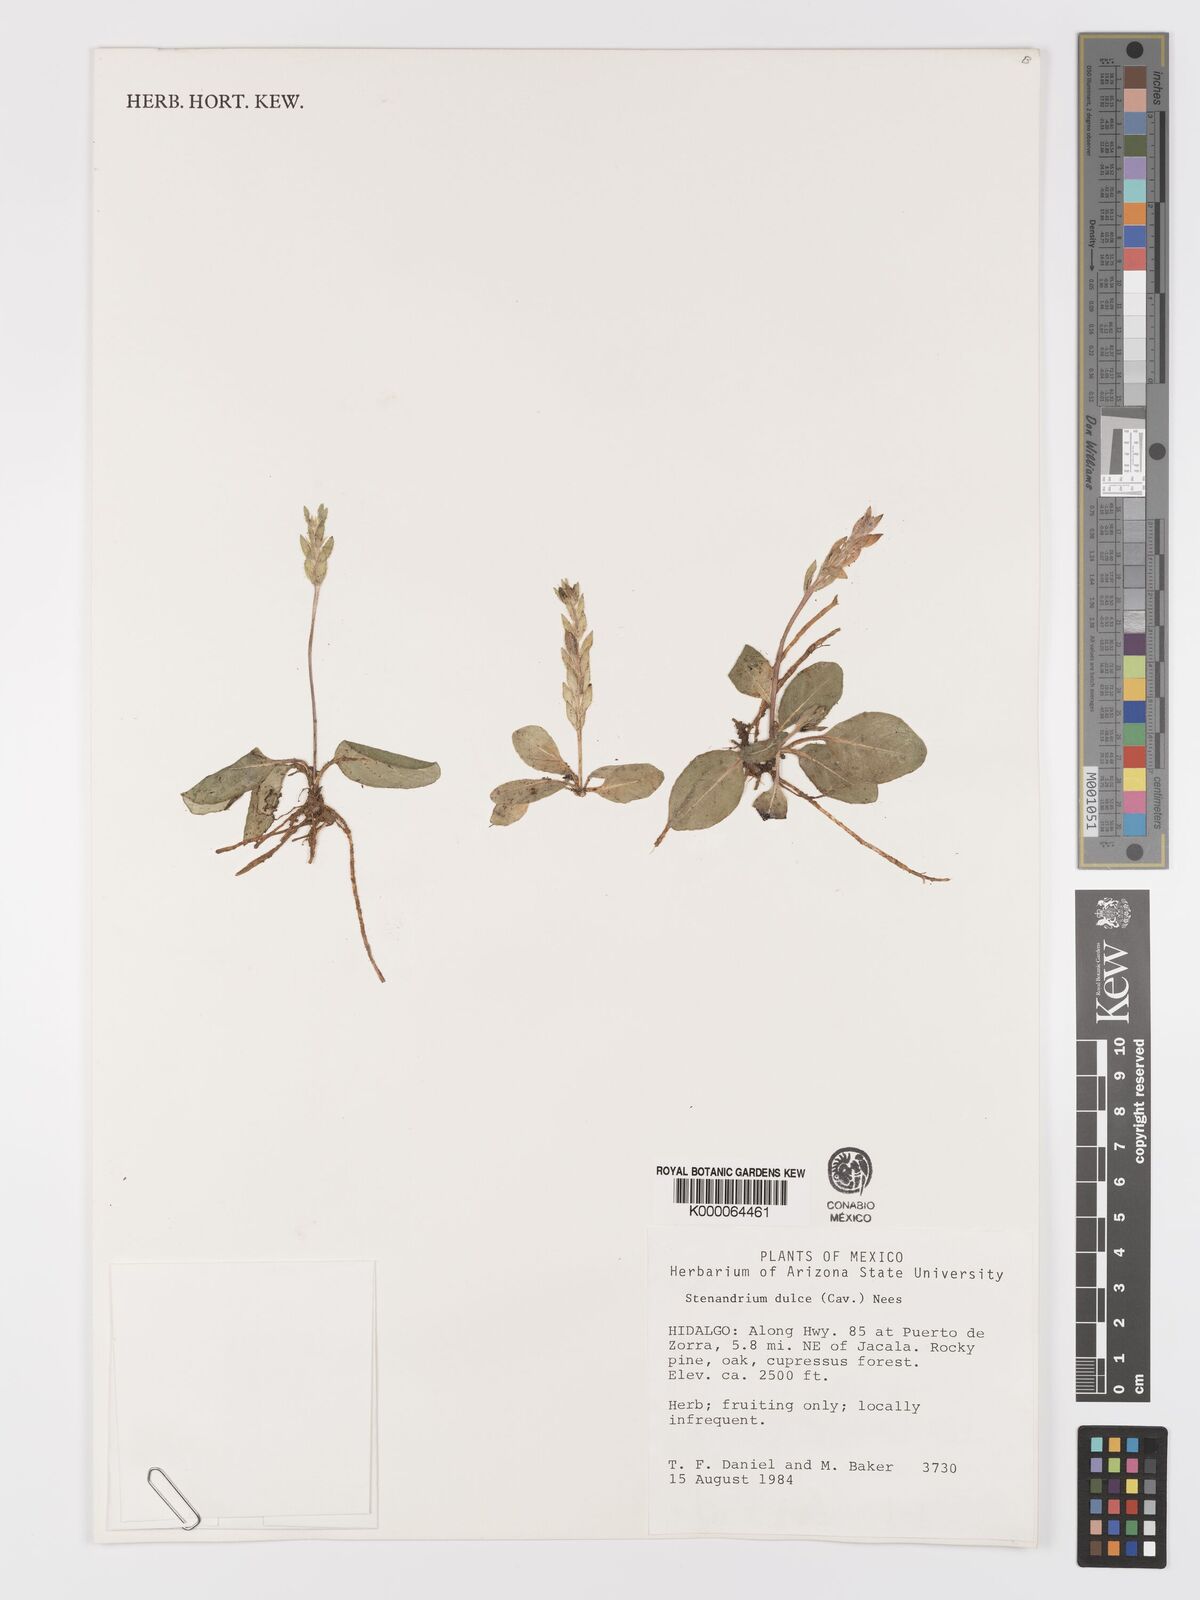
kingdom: Plantae
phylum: Tracheophyta
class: Magnoliopsida
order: Lamiales
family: Acanthaceae
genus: Stenandrium
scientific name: Stenandrium dulce
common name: Pinklet
